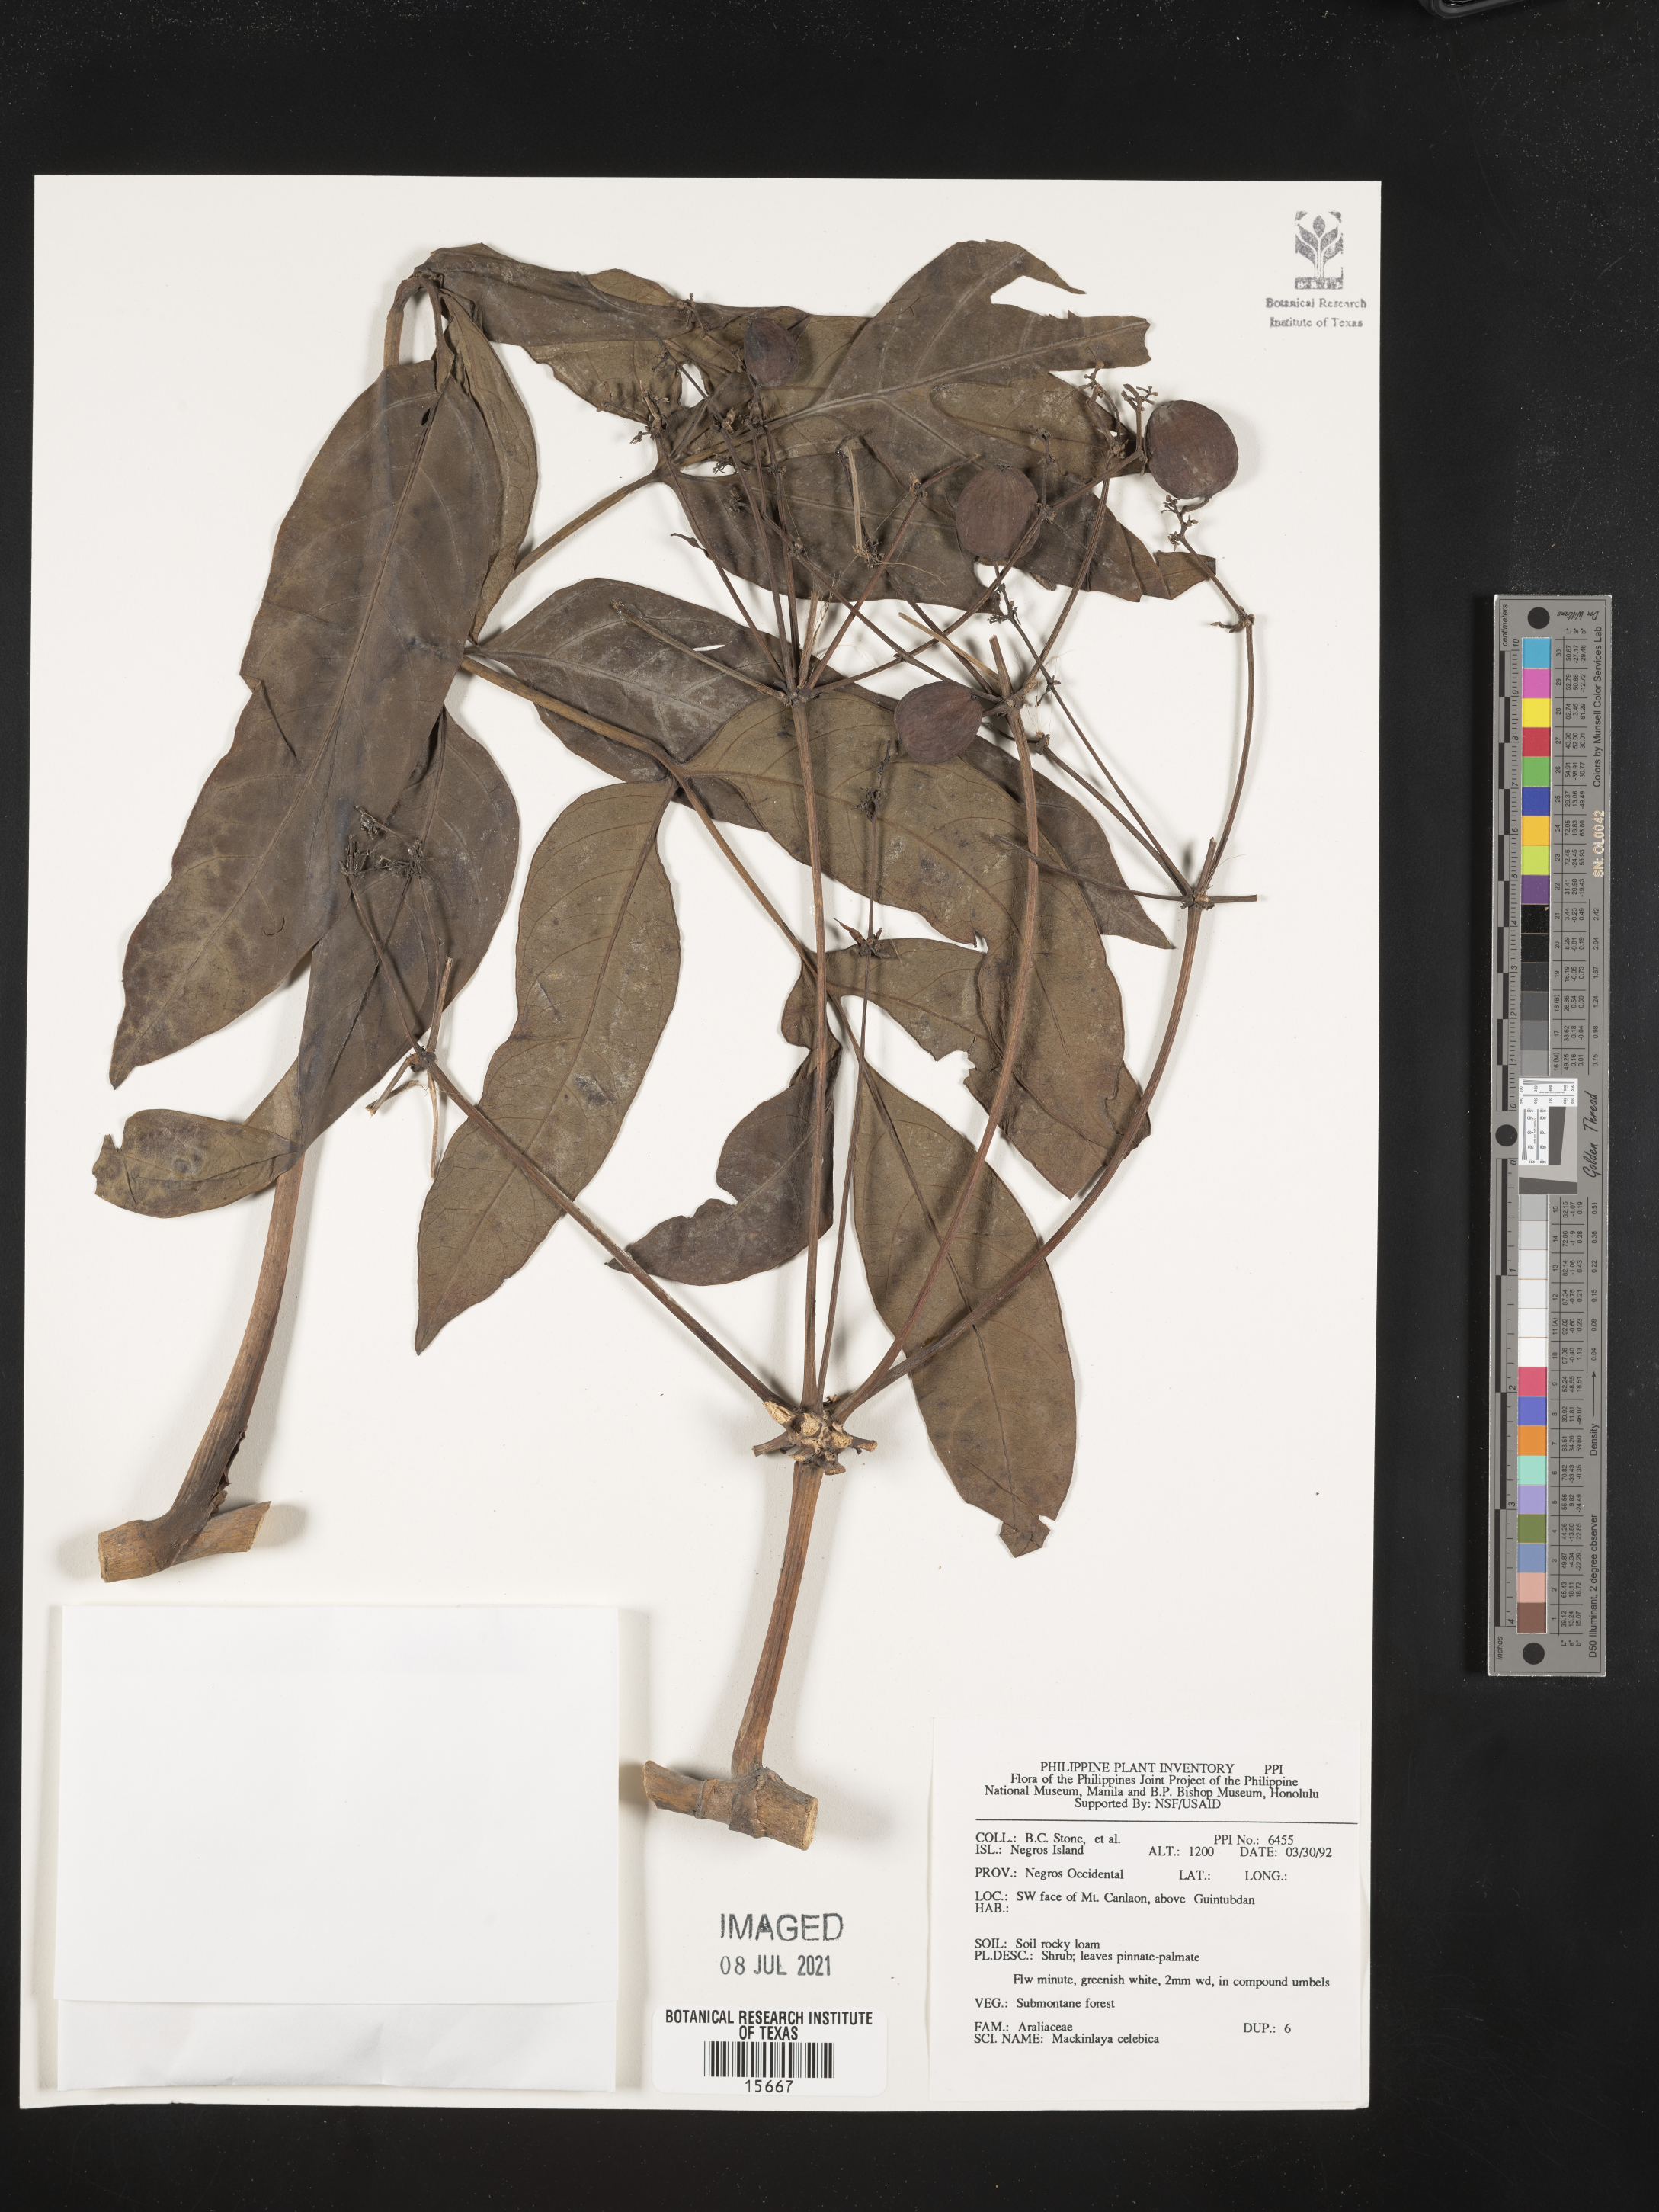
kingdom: Plantae
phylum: Tracheophyta
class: Magnoliopsida
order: Apiales
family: Apiaceae
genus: Mackinlaya
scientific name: Mackinlaya celebica
